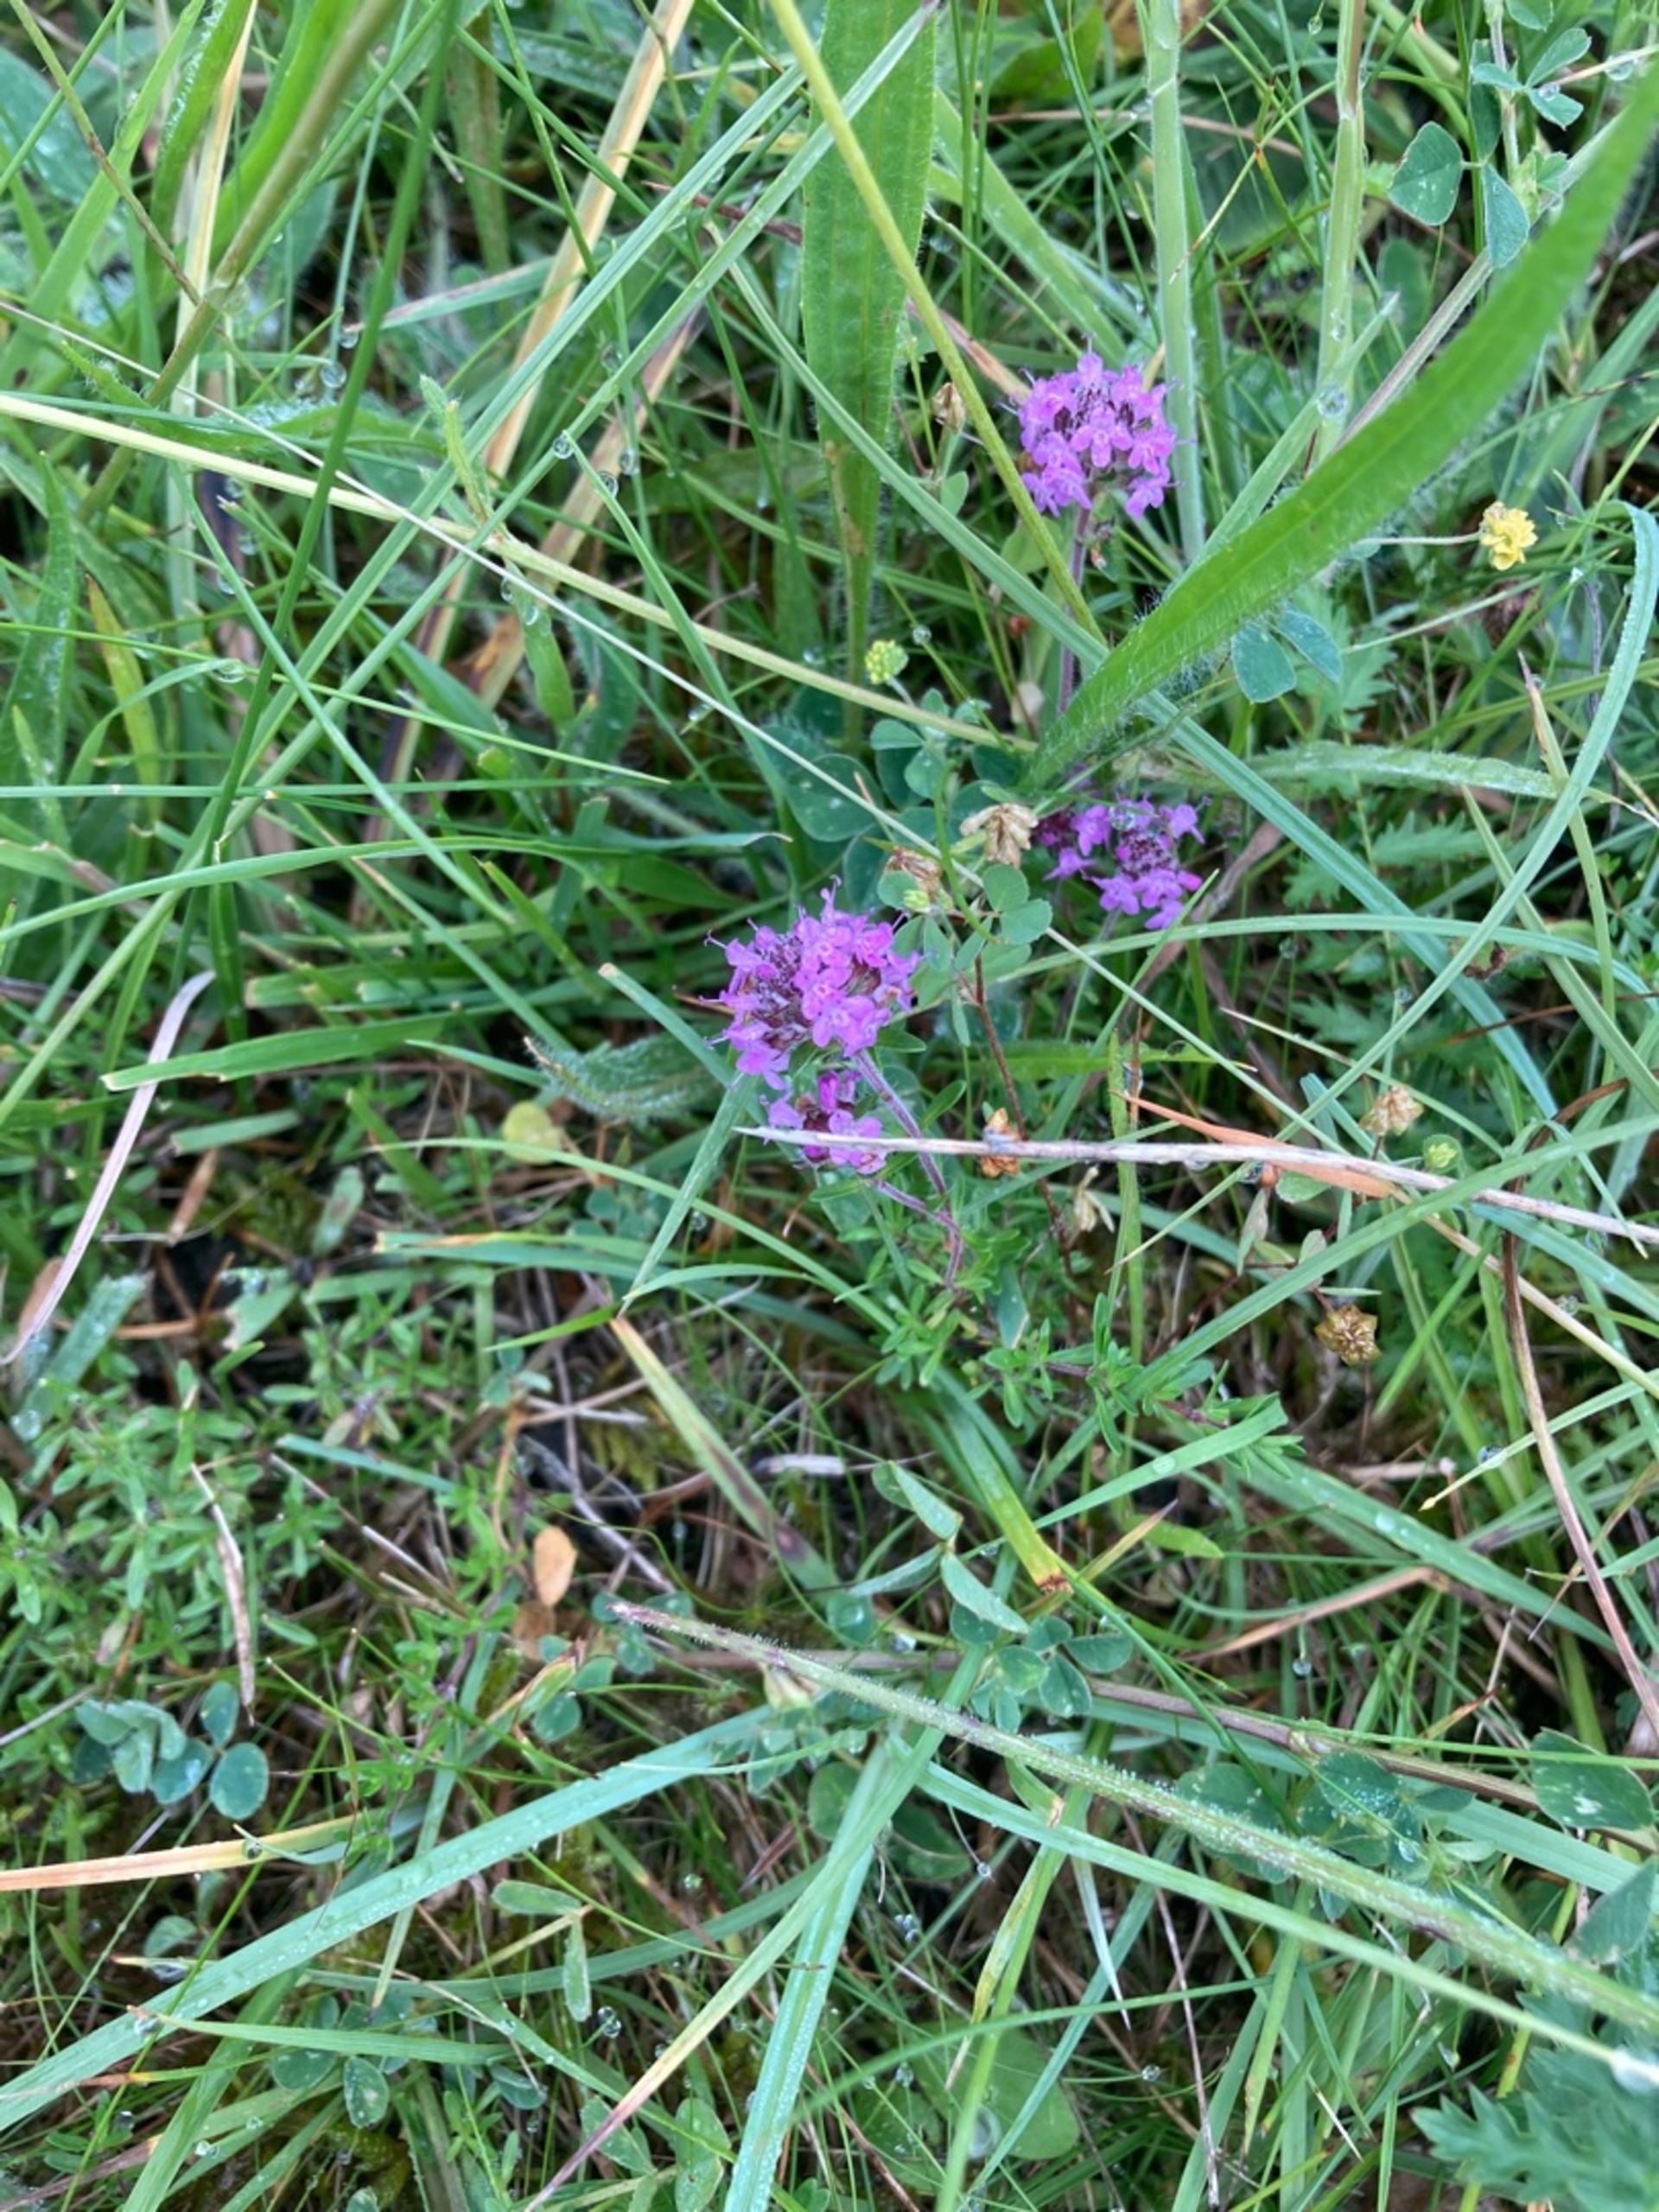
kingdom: Plantae
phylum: Tracheophyta
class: Magnoliopsida
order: Lamiales
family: Lamiaceae
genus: Thymus
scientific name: Thymus serpyllum
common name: Smalbladet timian
